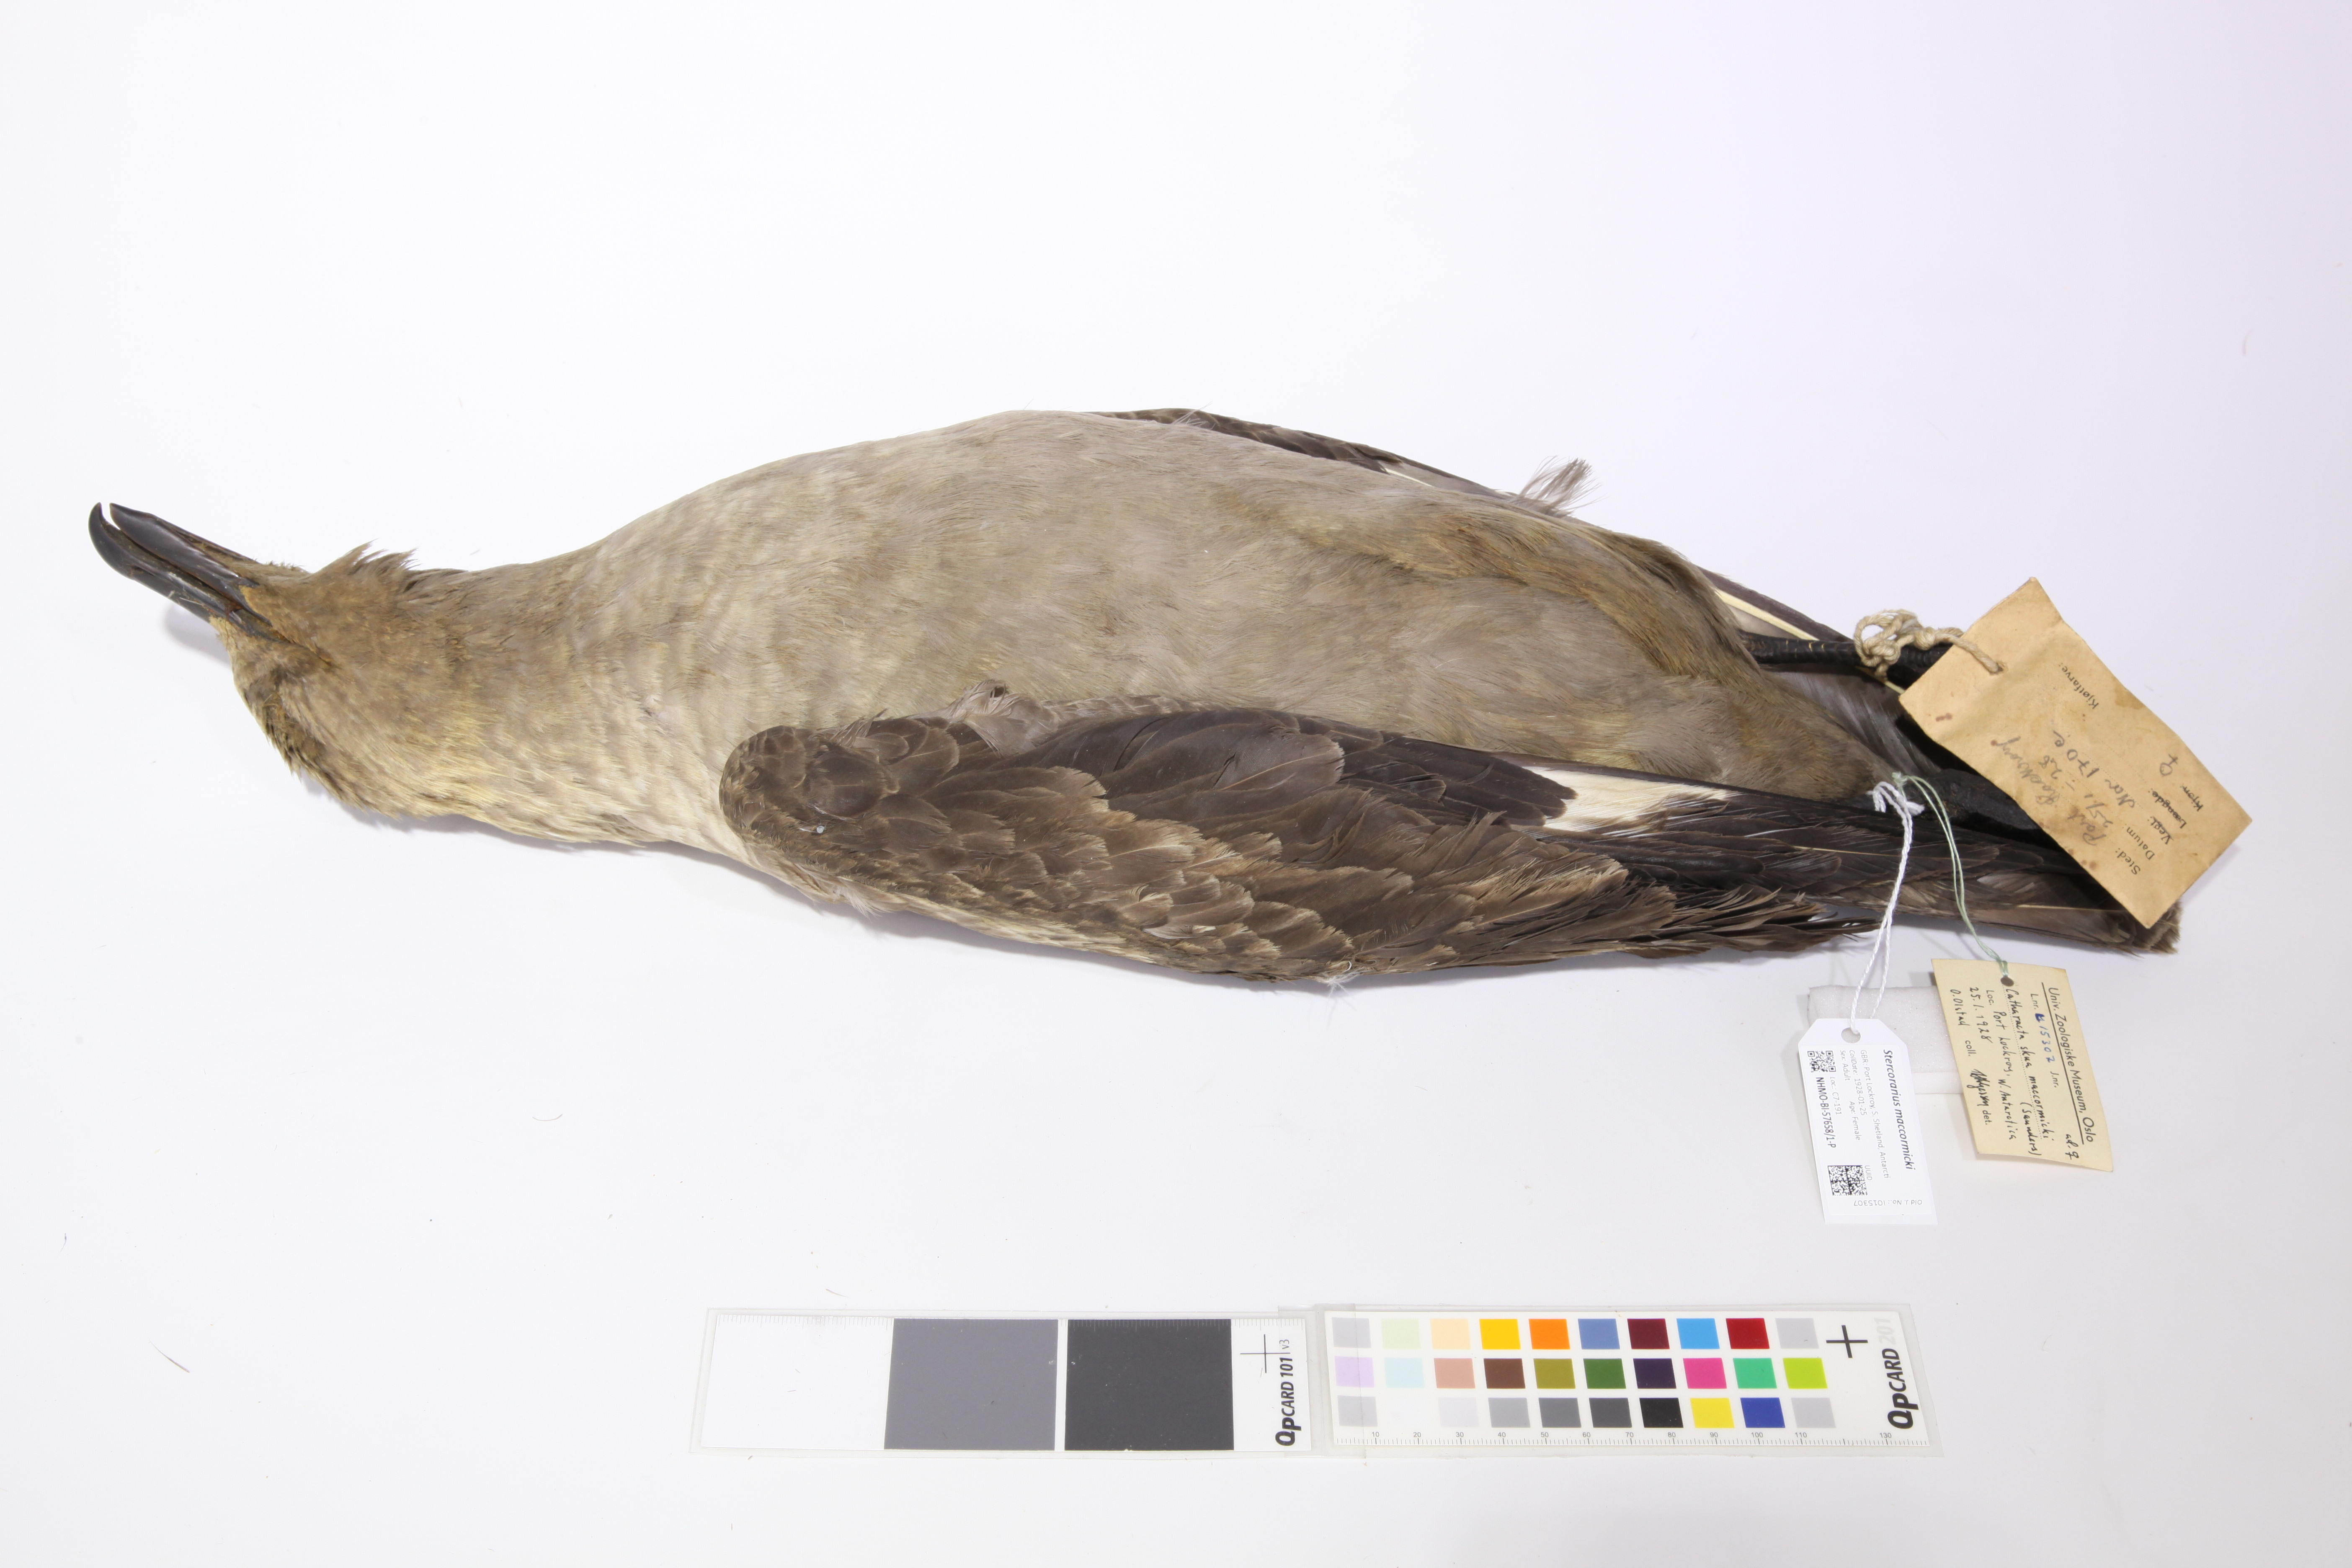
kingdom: Animalia
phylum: Chordata
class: Aves
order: Charadriiformes
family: Stercorariidae
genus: Stercorarius
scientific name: Stercorarius maccormicki
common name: South polar skua
